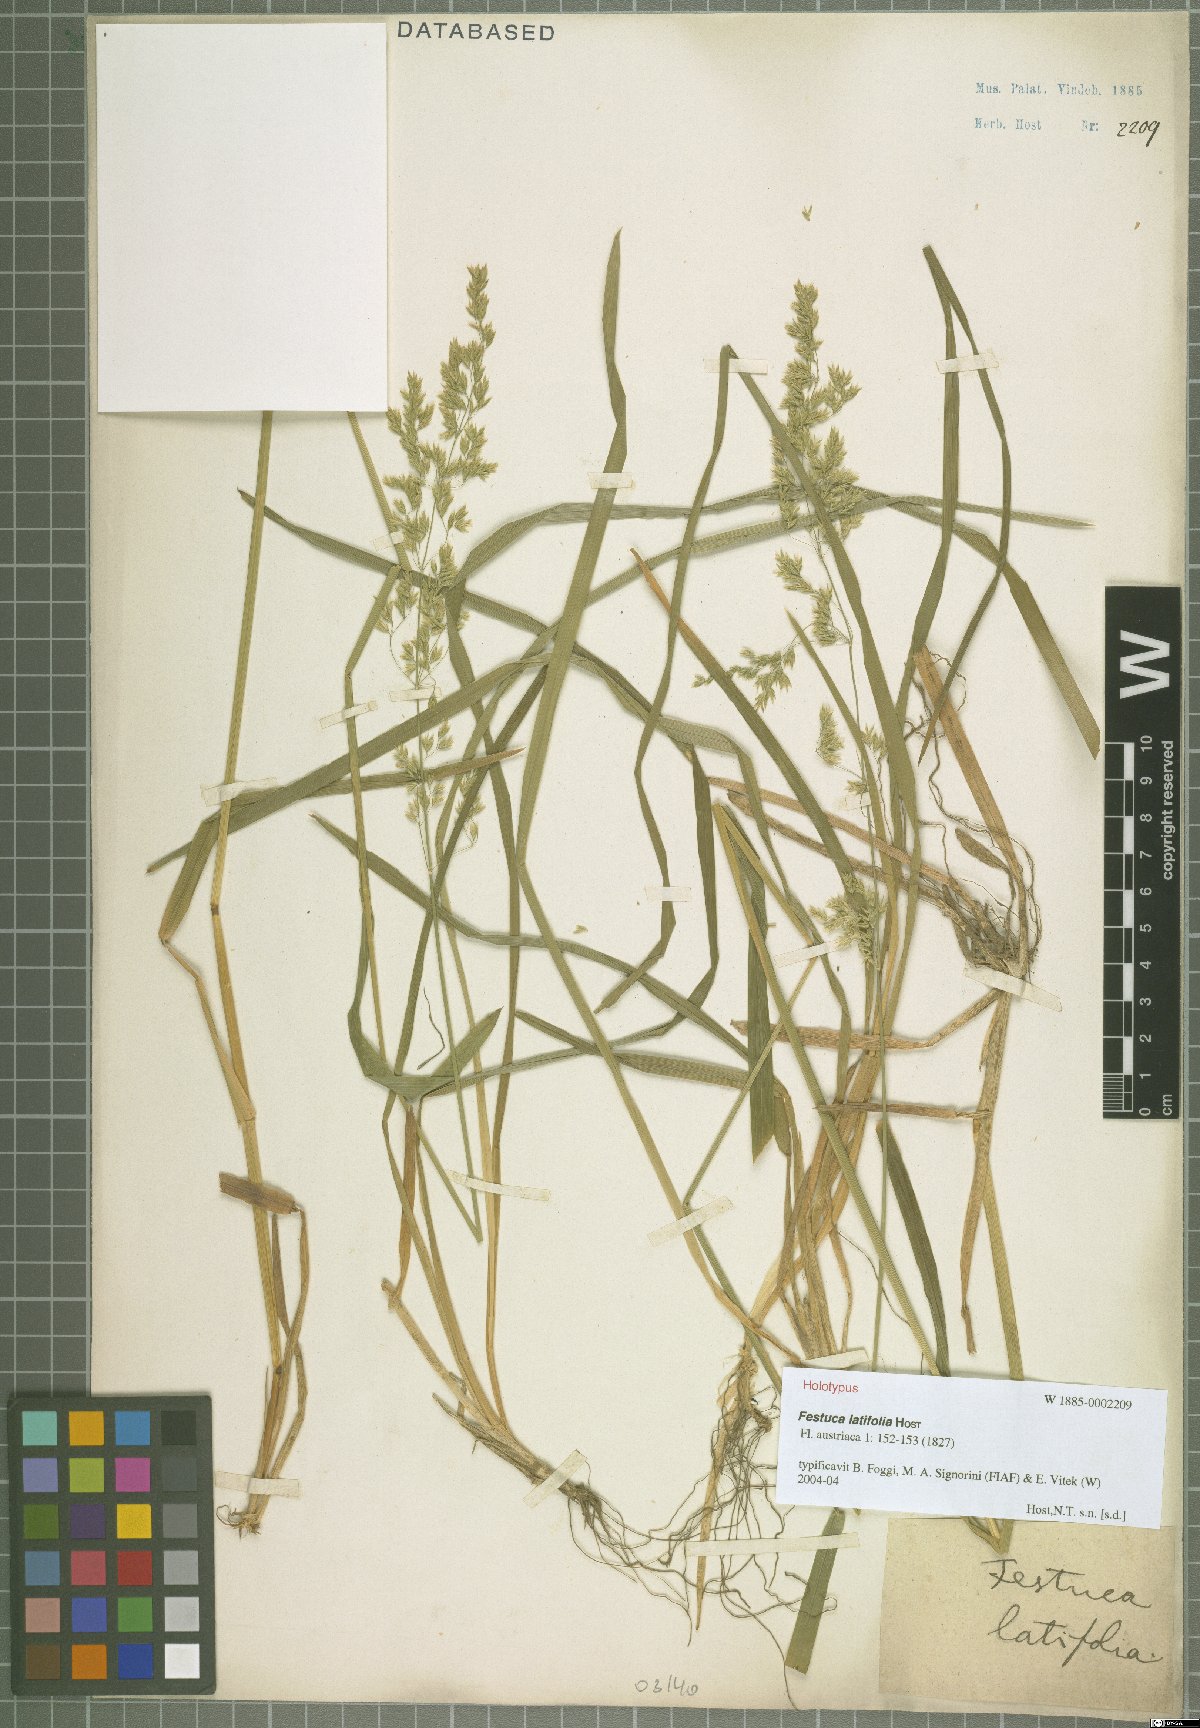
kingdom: Plantae
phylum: Tracheophyta
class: Liliopsida
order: Poales
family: Poaceae
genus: Festuca
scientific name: Festuca altissima
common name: Wood fescue
